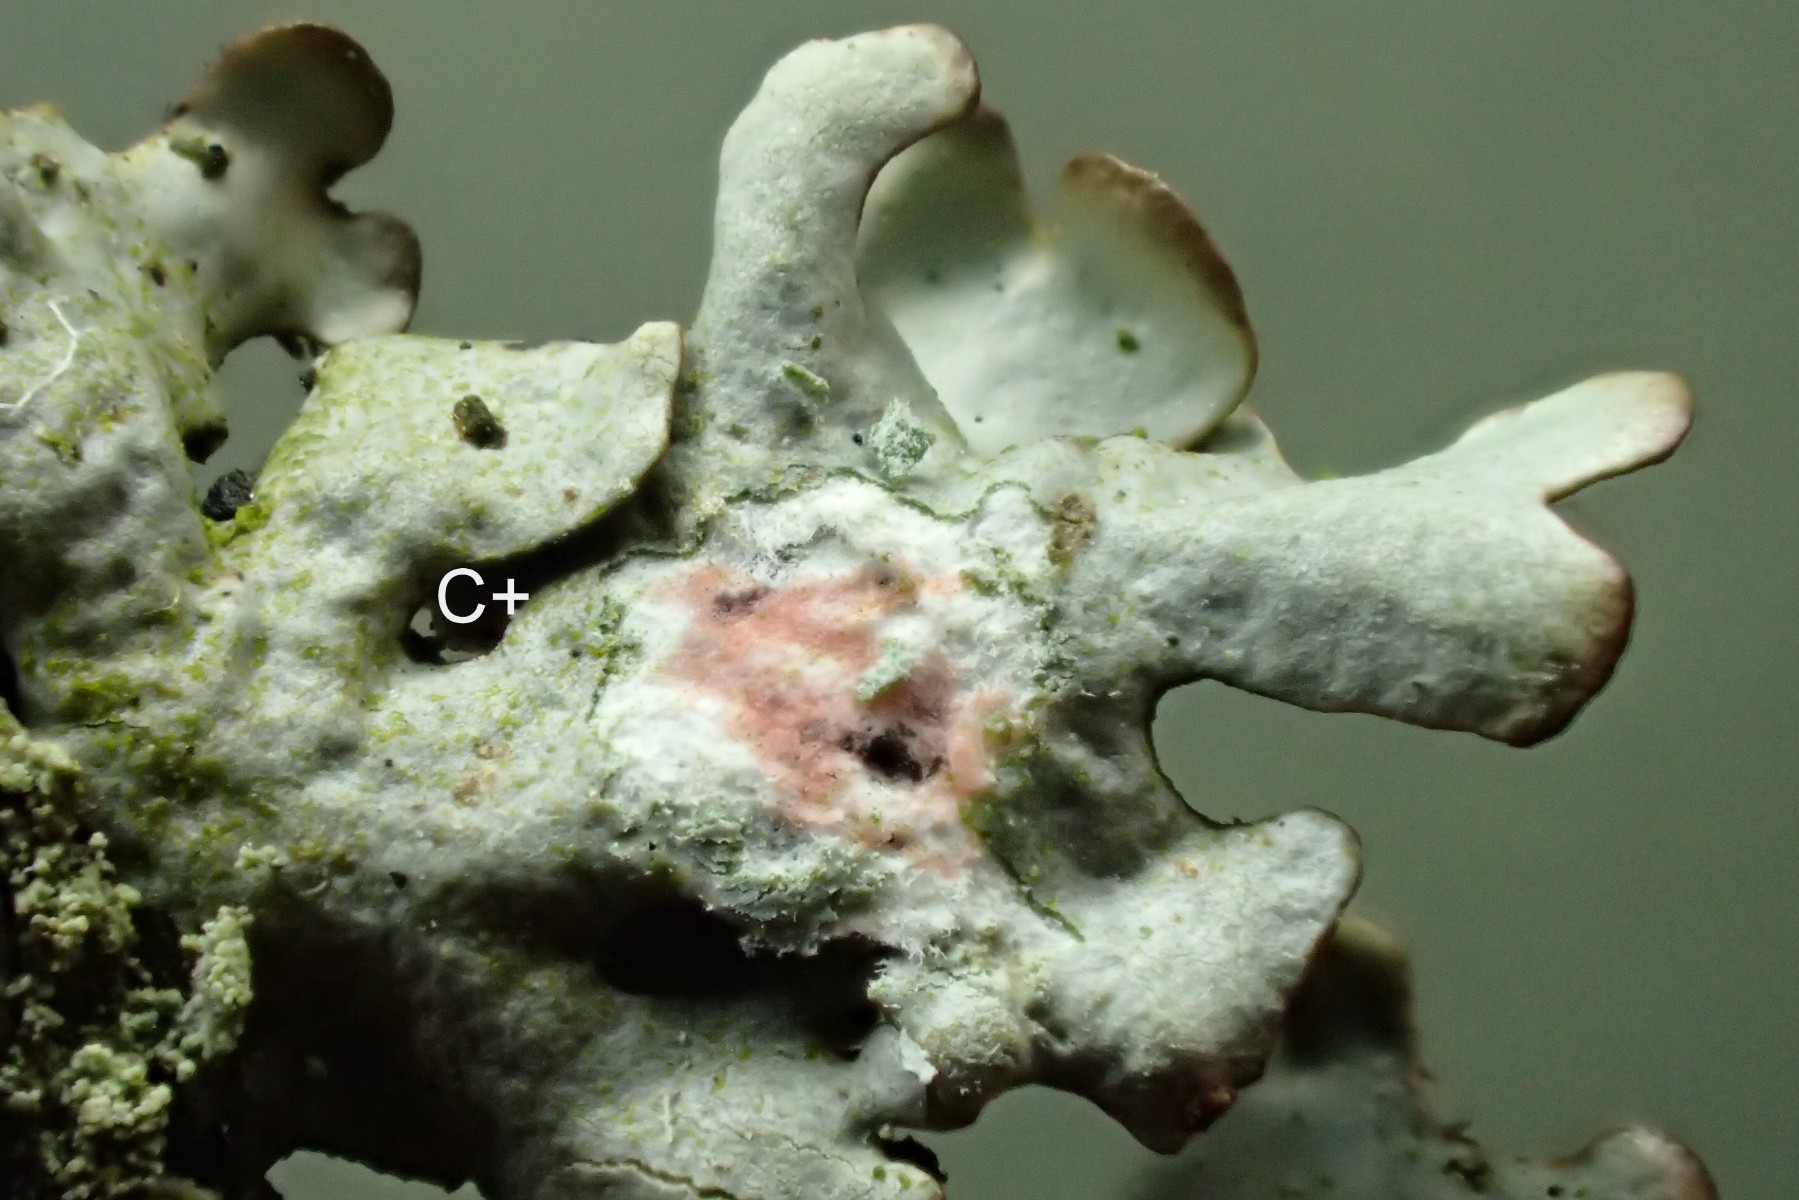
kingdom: Fungi
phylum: Ascomycota
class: Lecanoromycetes
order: Lecanorales
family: Parmeliaceae
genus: Hypotrachyna
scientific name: Hypotrachyna revoluta
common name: bleggrå skållav
